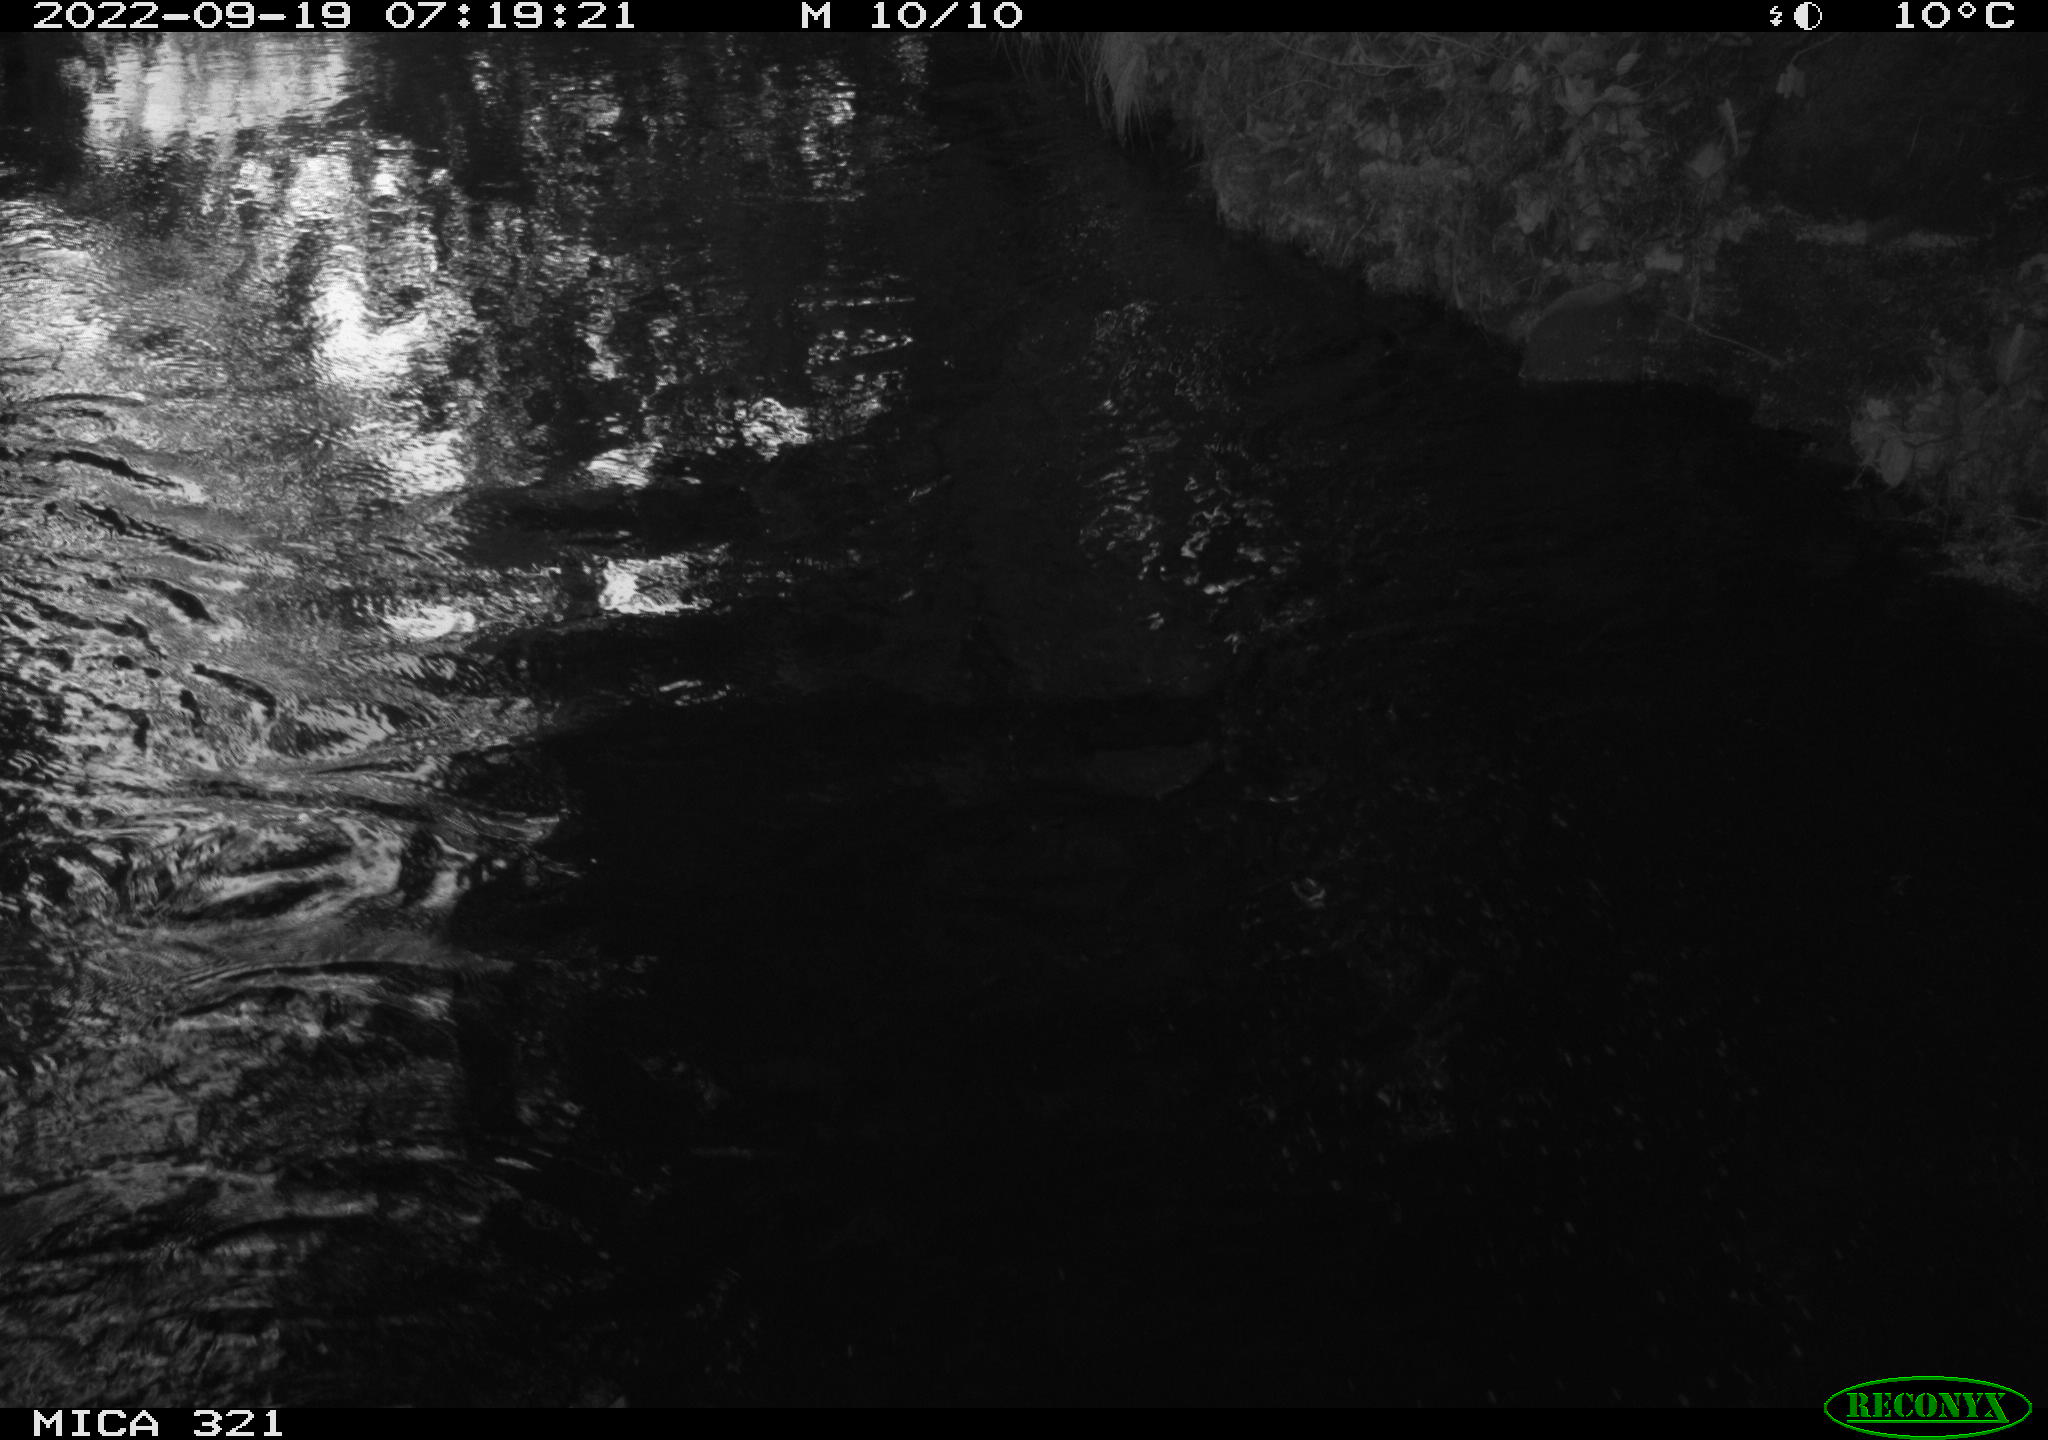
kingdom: Animalia
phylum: Chordata
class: Aves
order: Gruiformes
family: Rallidae
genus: Fulica
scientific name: Fulica atra
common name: Eurasian coot
